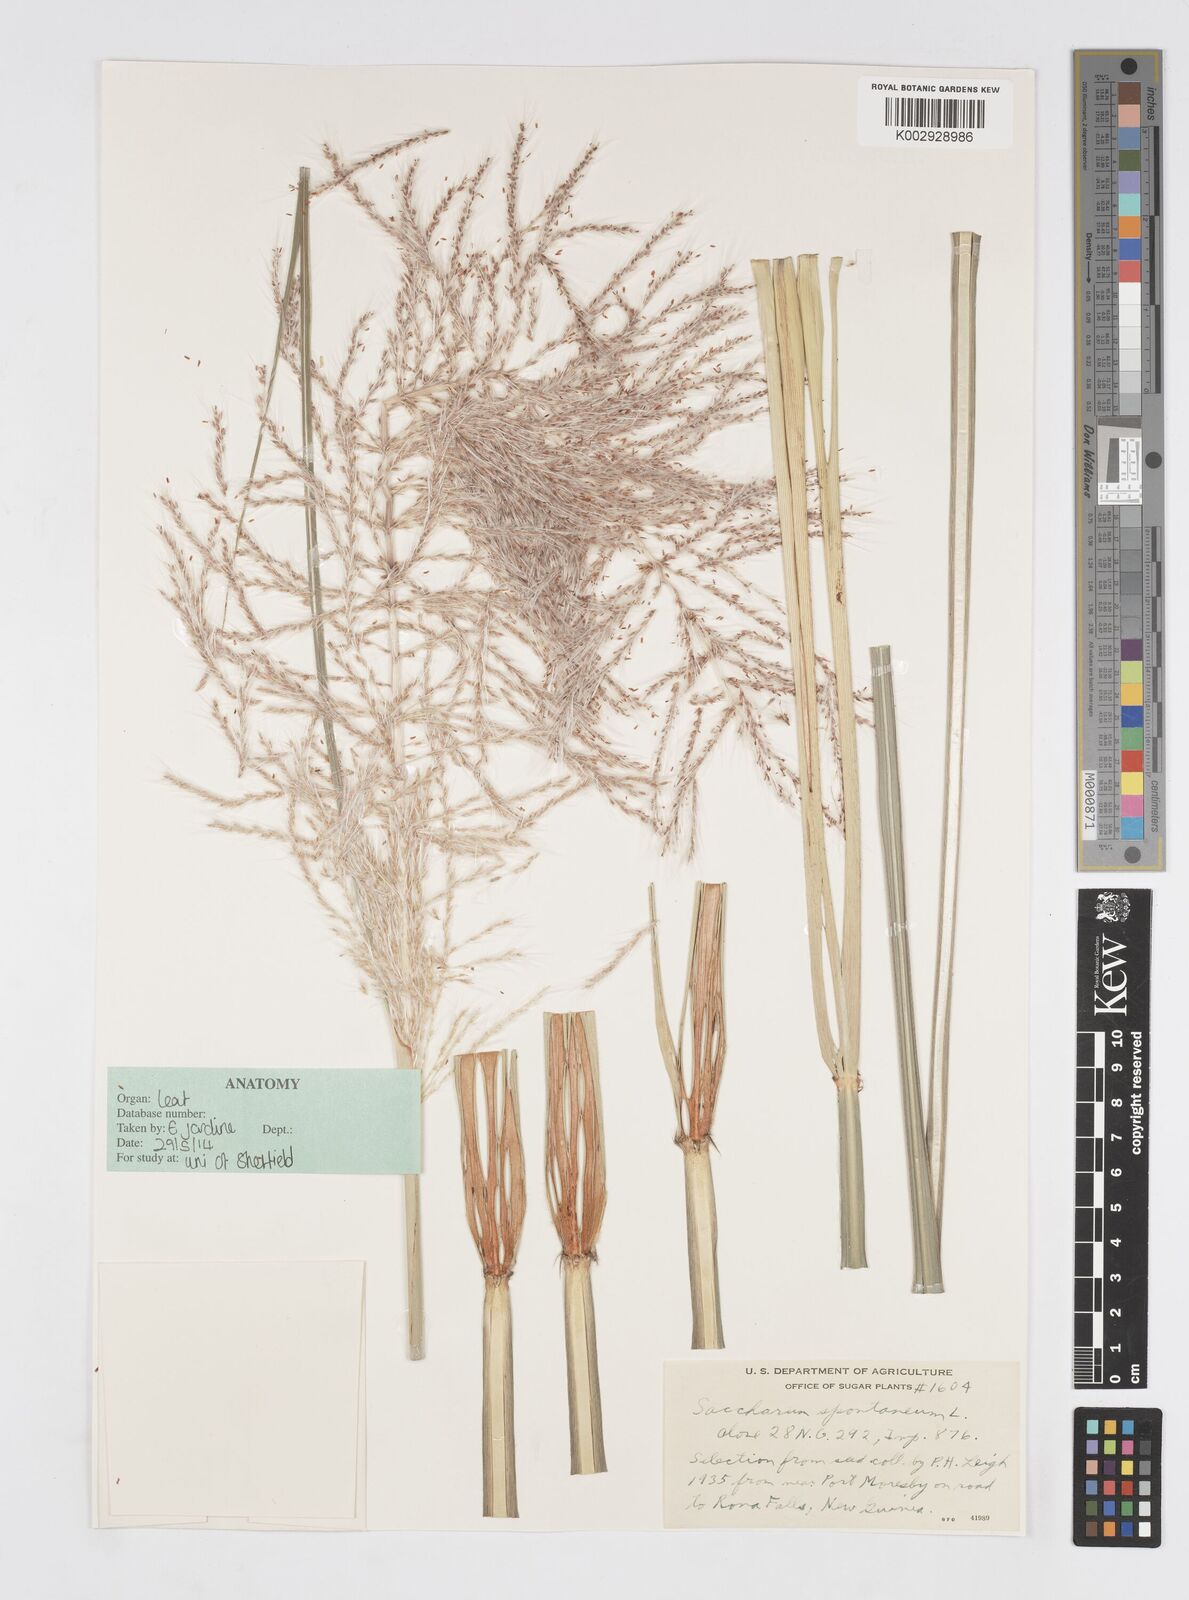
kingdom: Plantae
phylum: Tracheophyta
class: Liliopsida
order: Poales
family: Poaceae
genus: Saccharum
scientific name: Saccharum spontaneum
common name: Wild sugarcane
